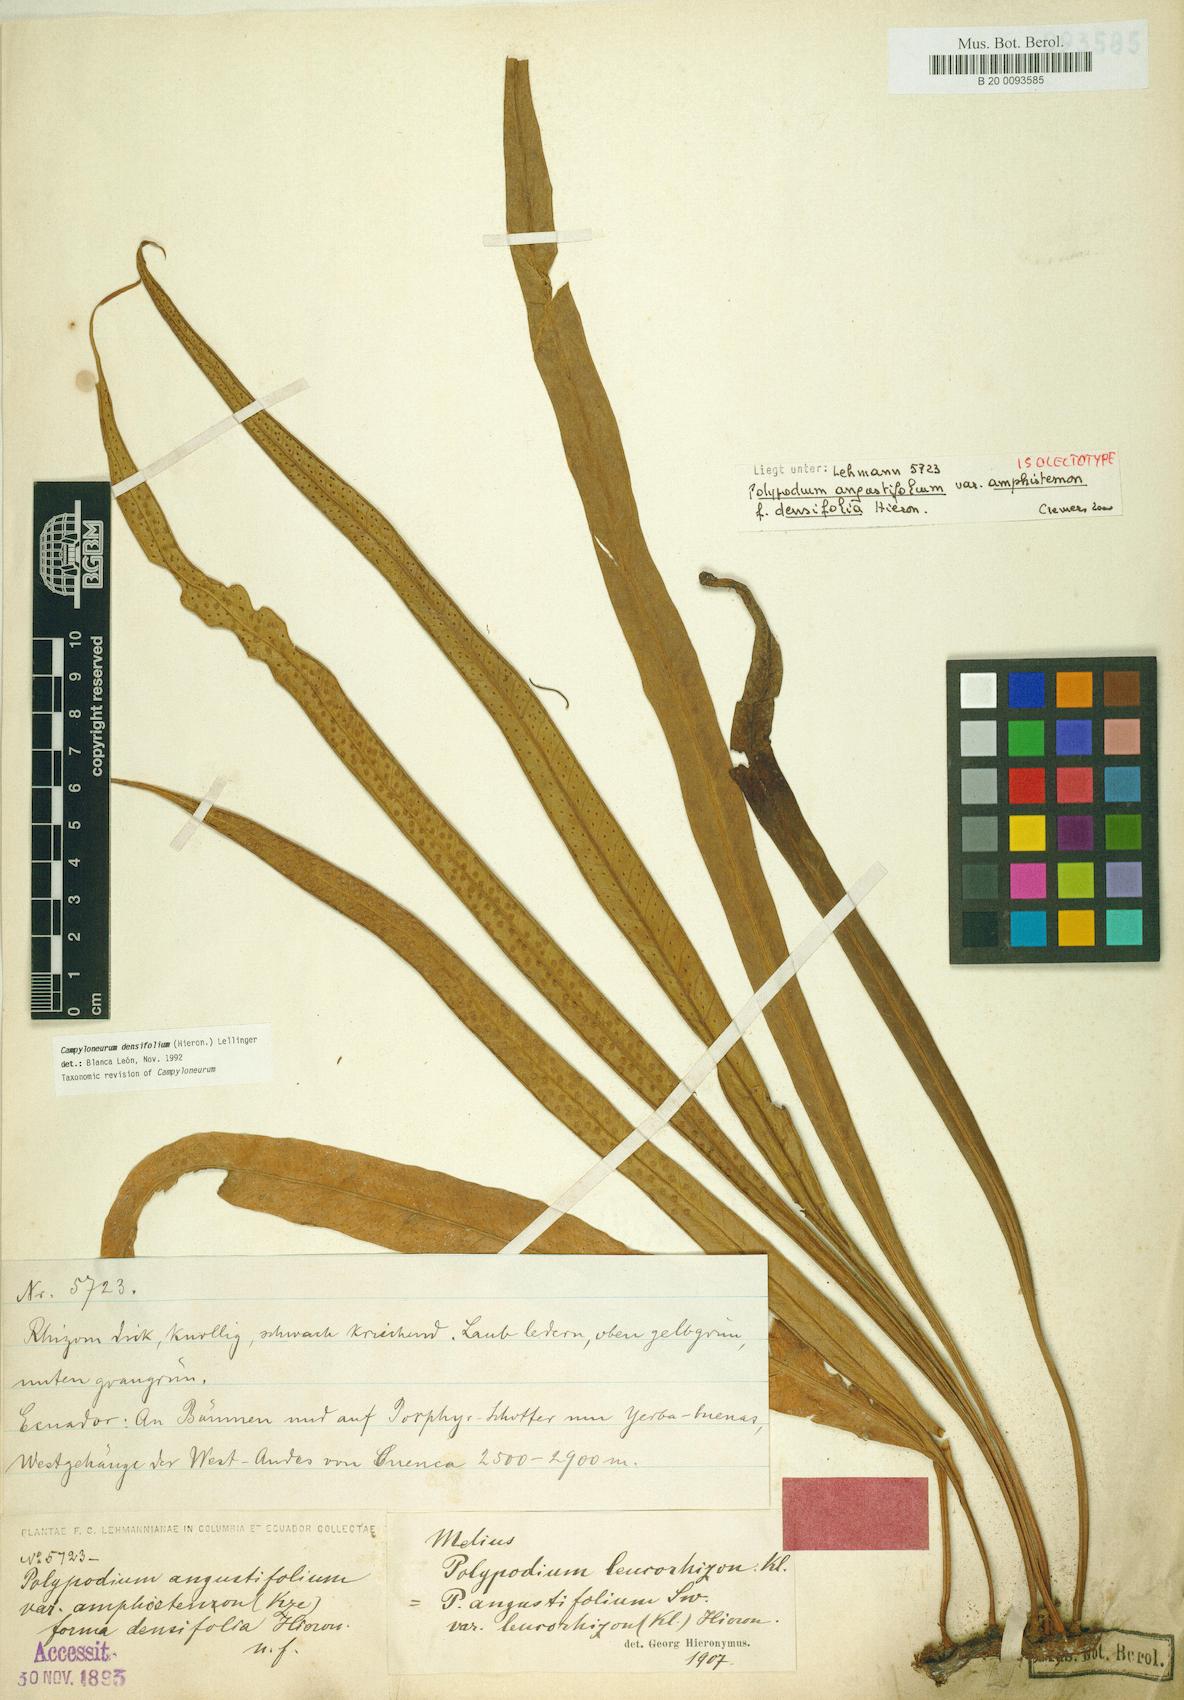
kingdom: Plantae
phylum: Tracheophyta
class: Polypodiopsida
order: Polypodiales
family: Polypodiaceae
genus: Campyloneurum
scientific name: Campyloneurum densifolium
